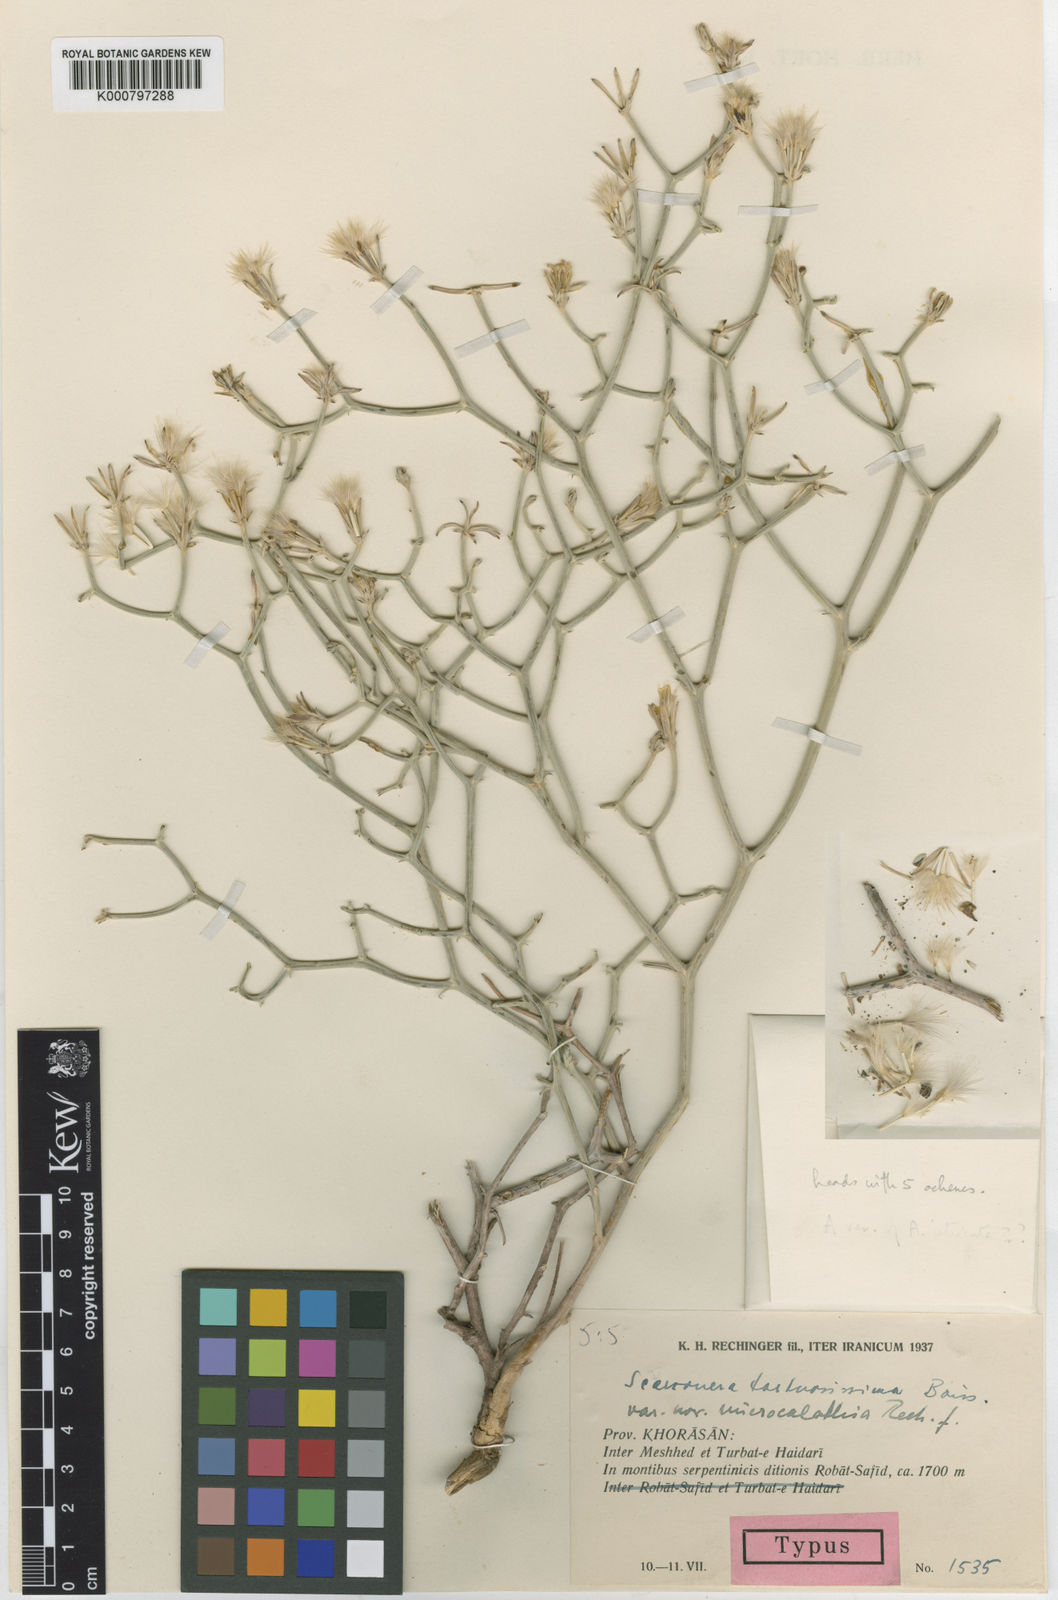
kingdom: Plantae
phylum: Tracheophyta
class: Magnoliopsida
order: Asterales
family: Asteraceae
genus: Ramaliella
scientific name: Ramaliella tortuosissima
